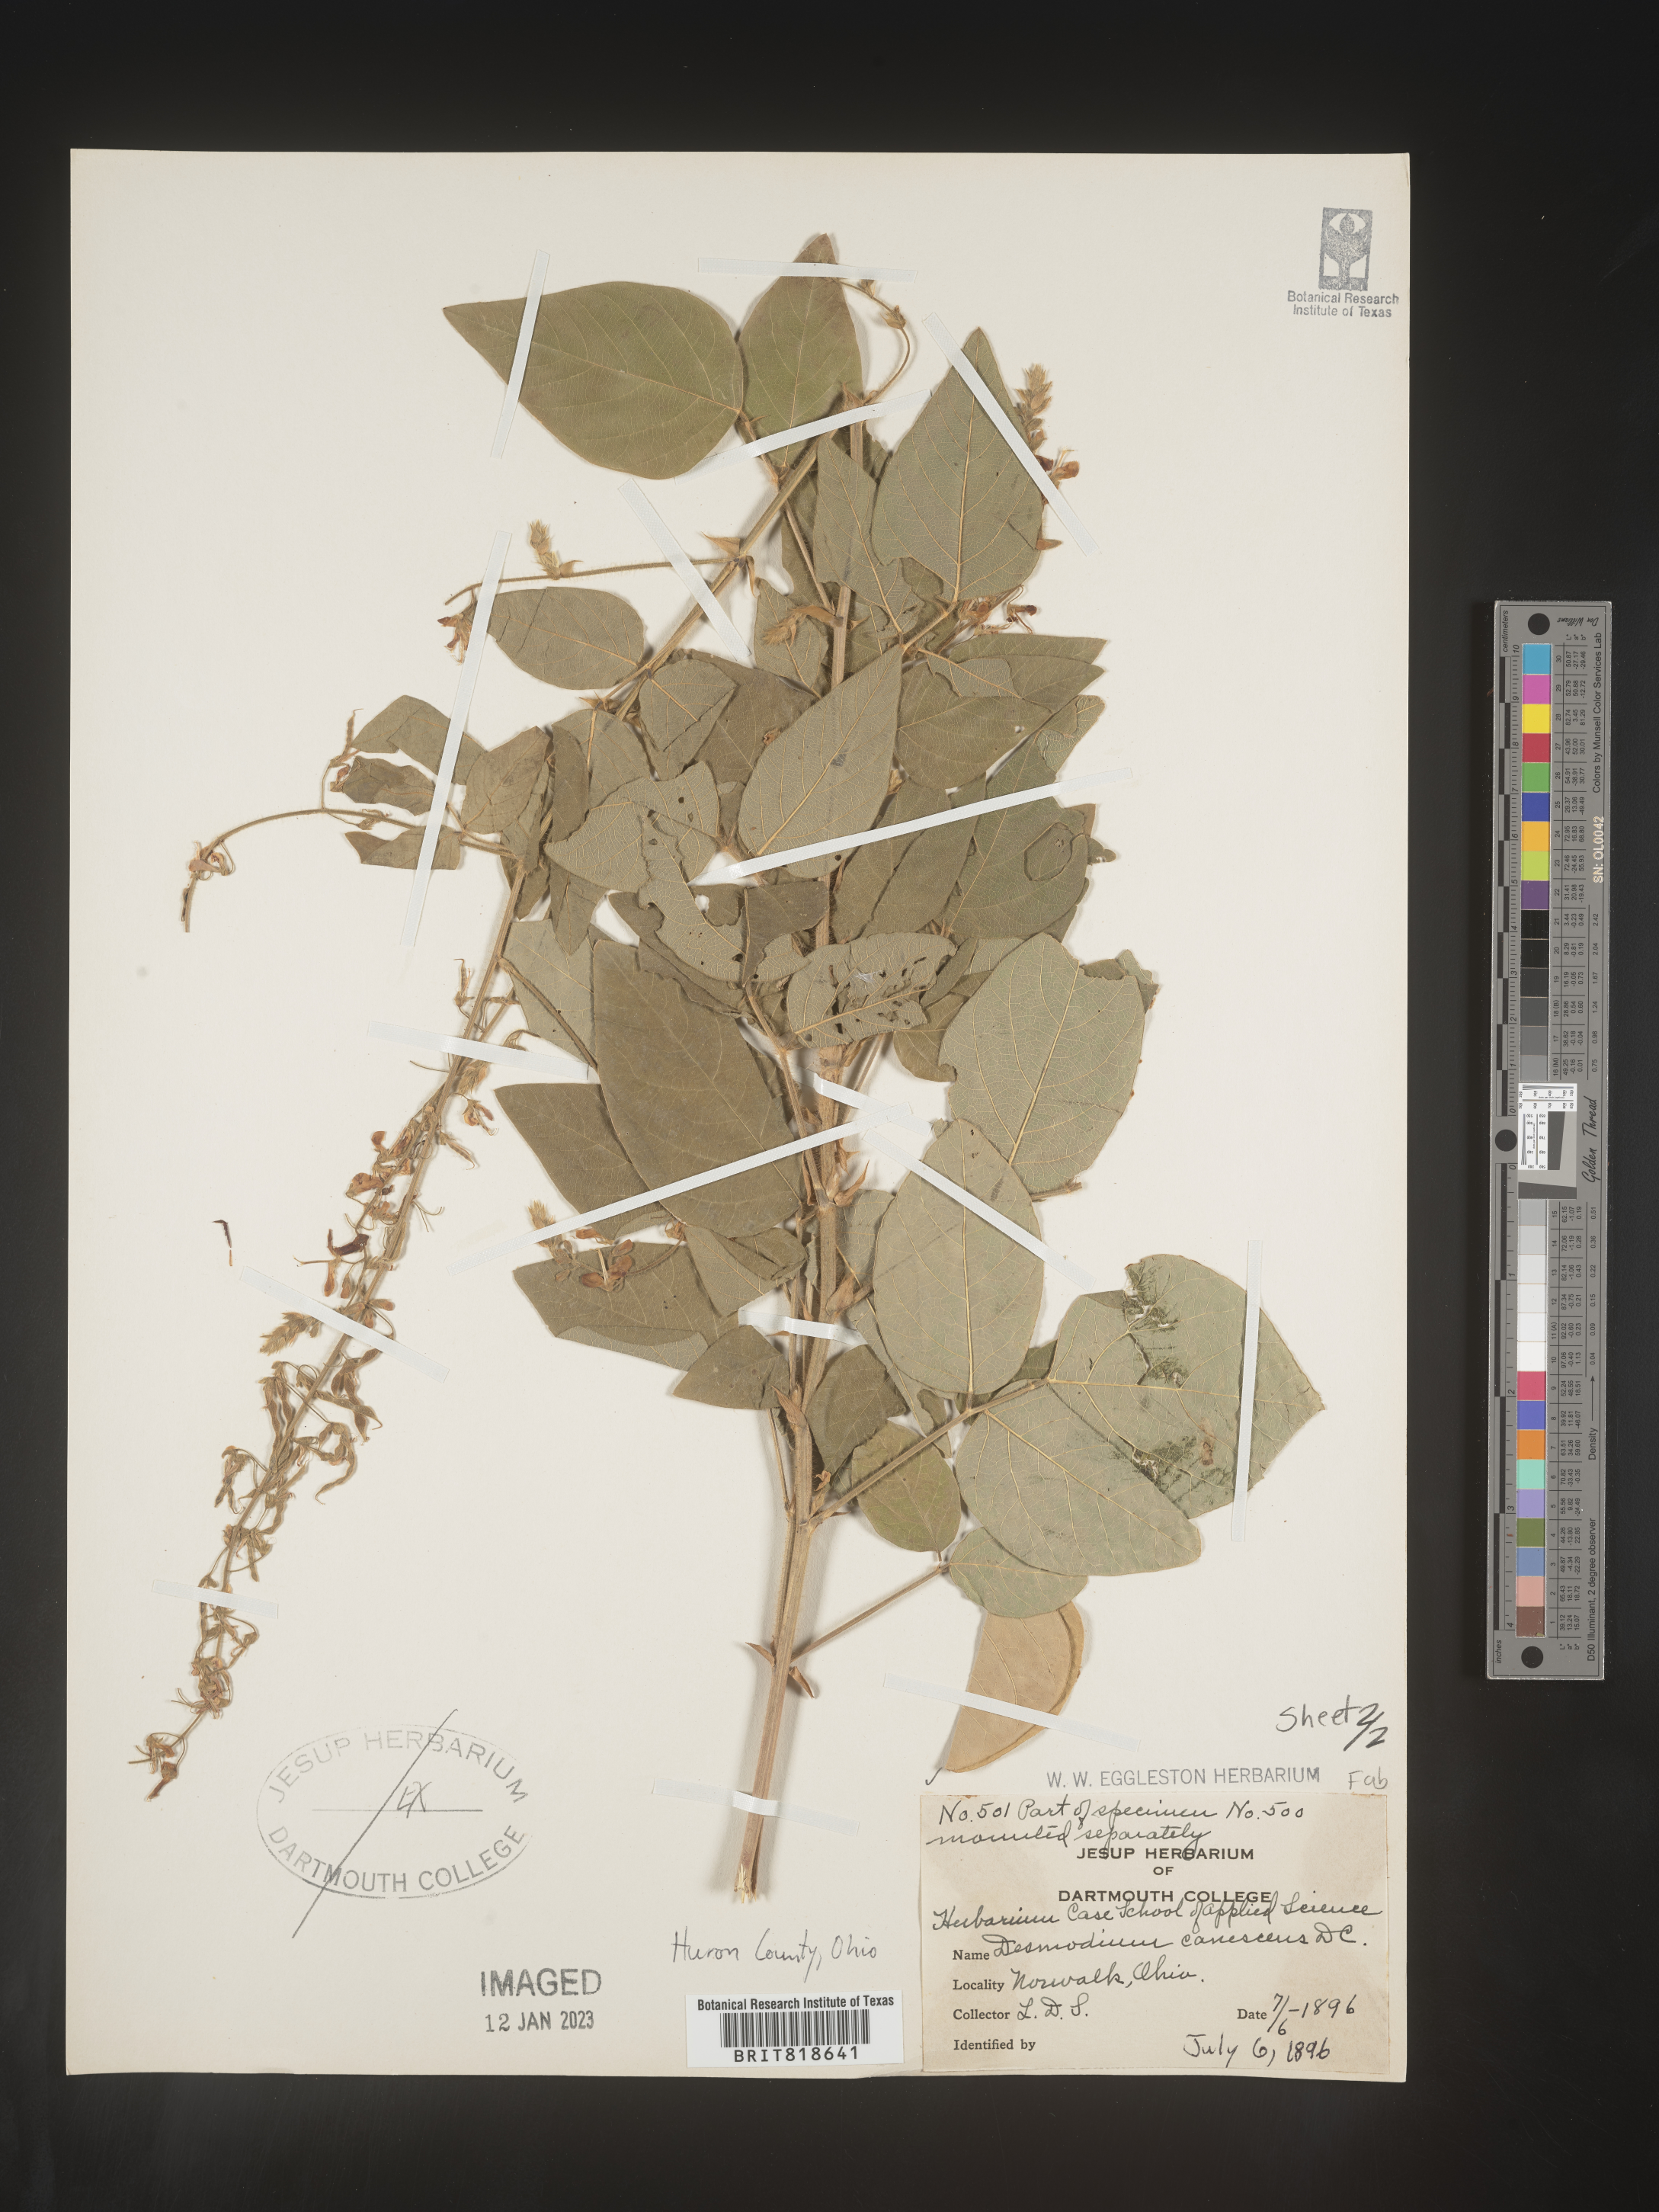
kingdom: Plantae
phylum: Tracheophyta
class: Magnoliopsida
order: Fabales
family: Fabaceae
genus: Desmodium
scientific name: Desmodium canadense
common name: Canada tick-trefoil
